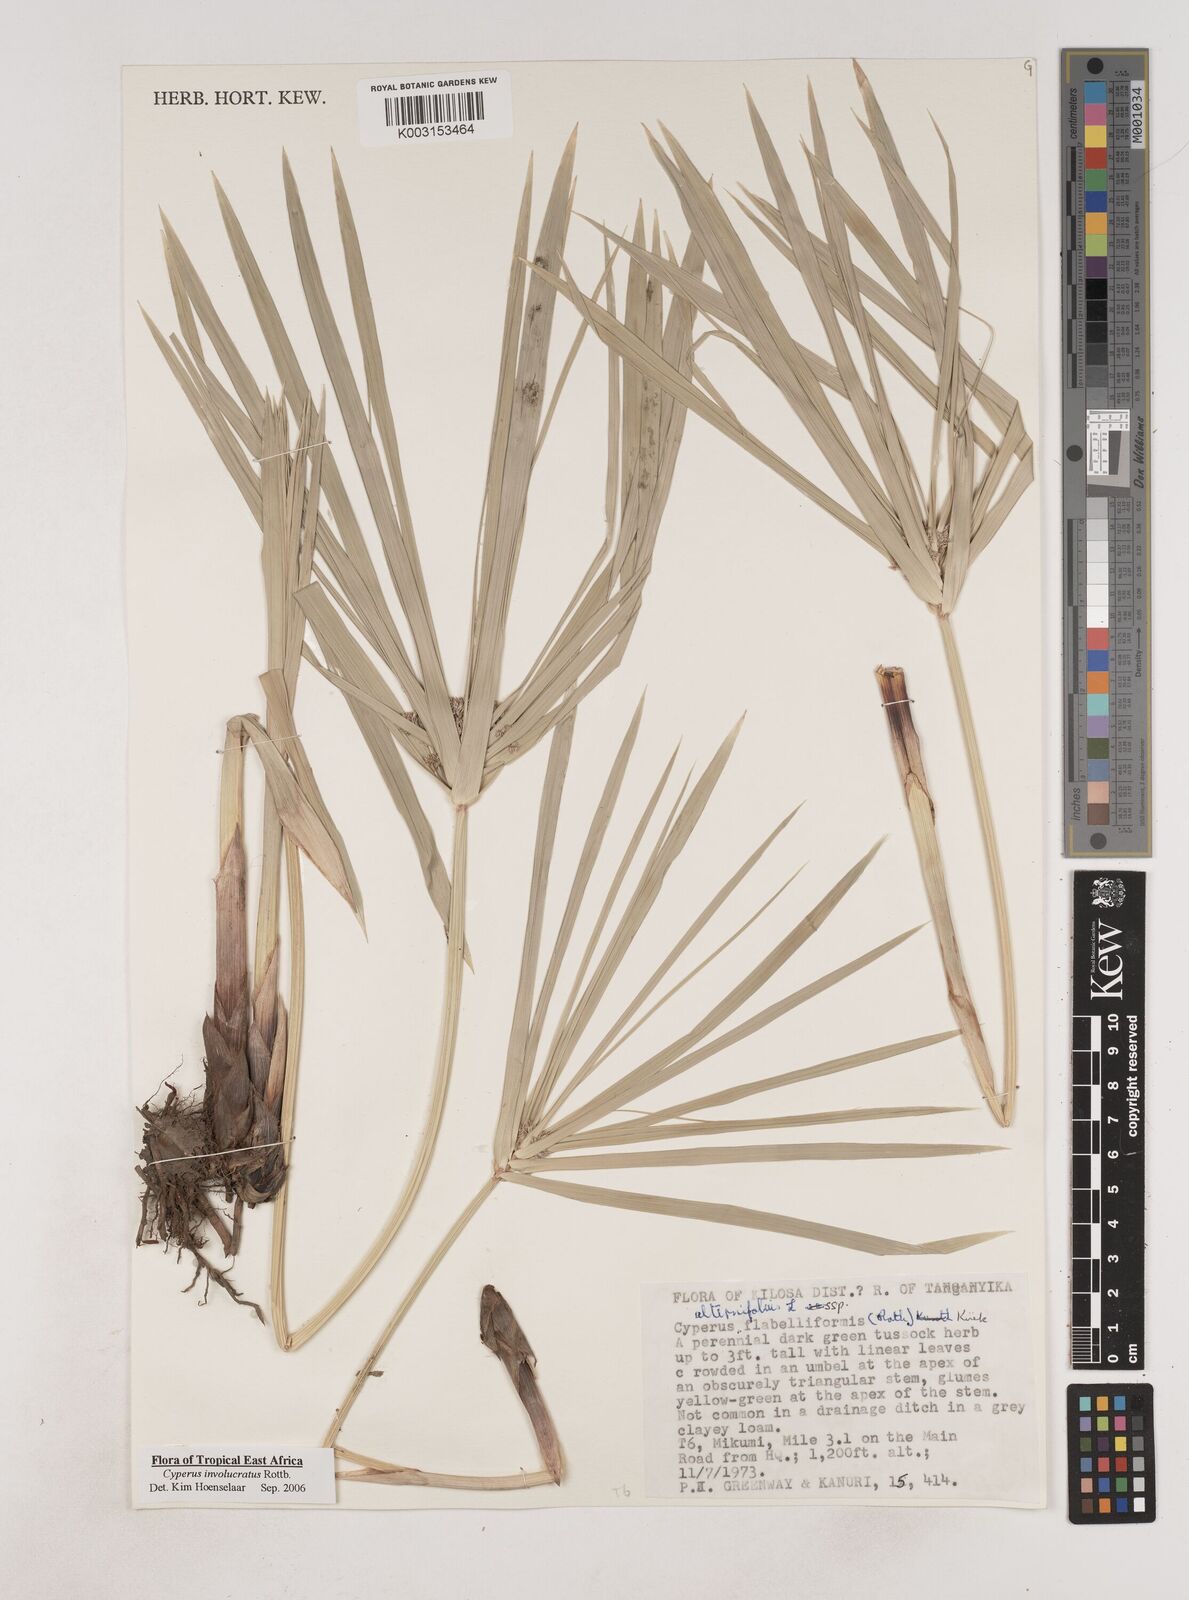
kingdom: Plantae
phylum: Tracheophyta
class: Liliopsida
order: Poales
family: Cyperaceae
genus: Cyperus
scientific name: Cyperus alternifolius
